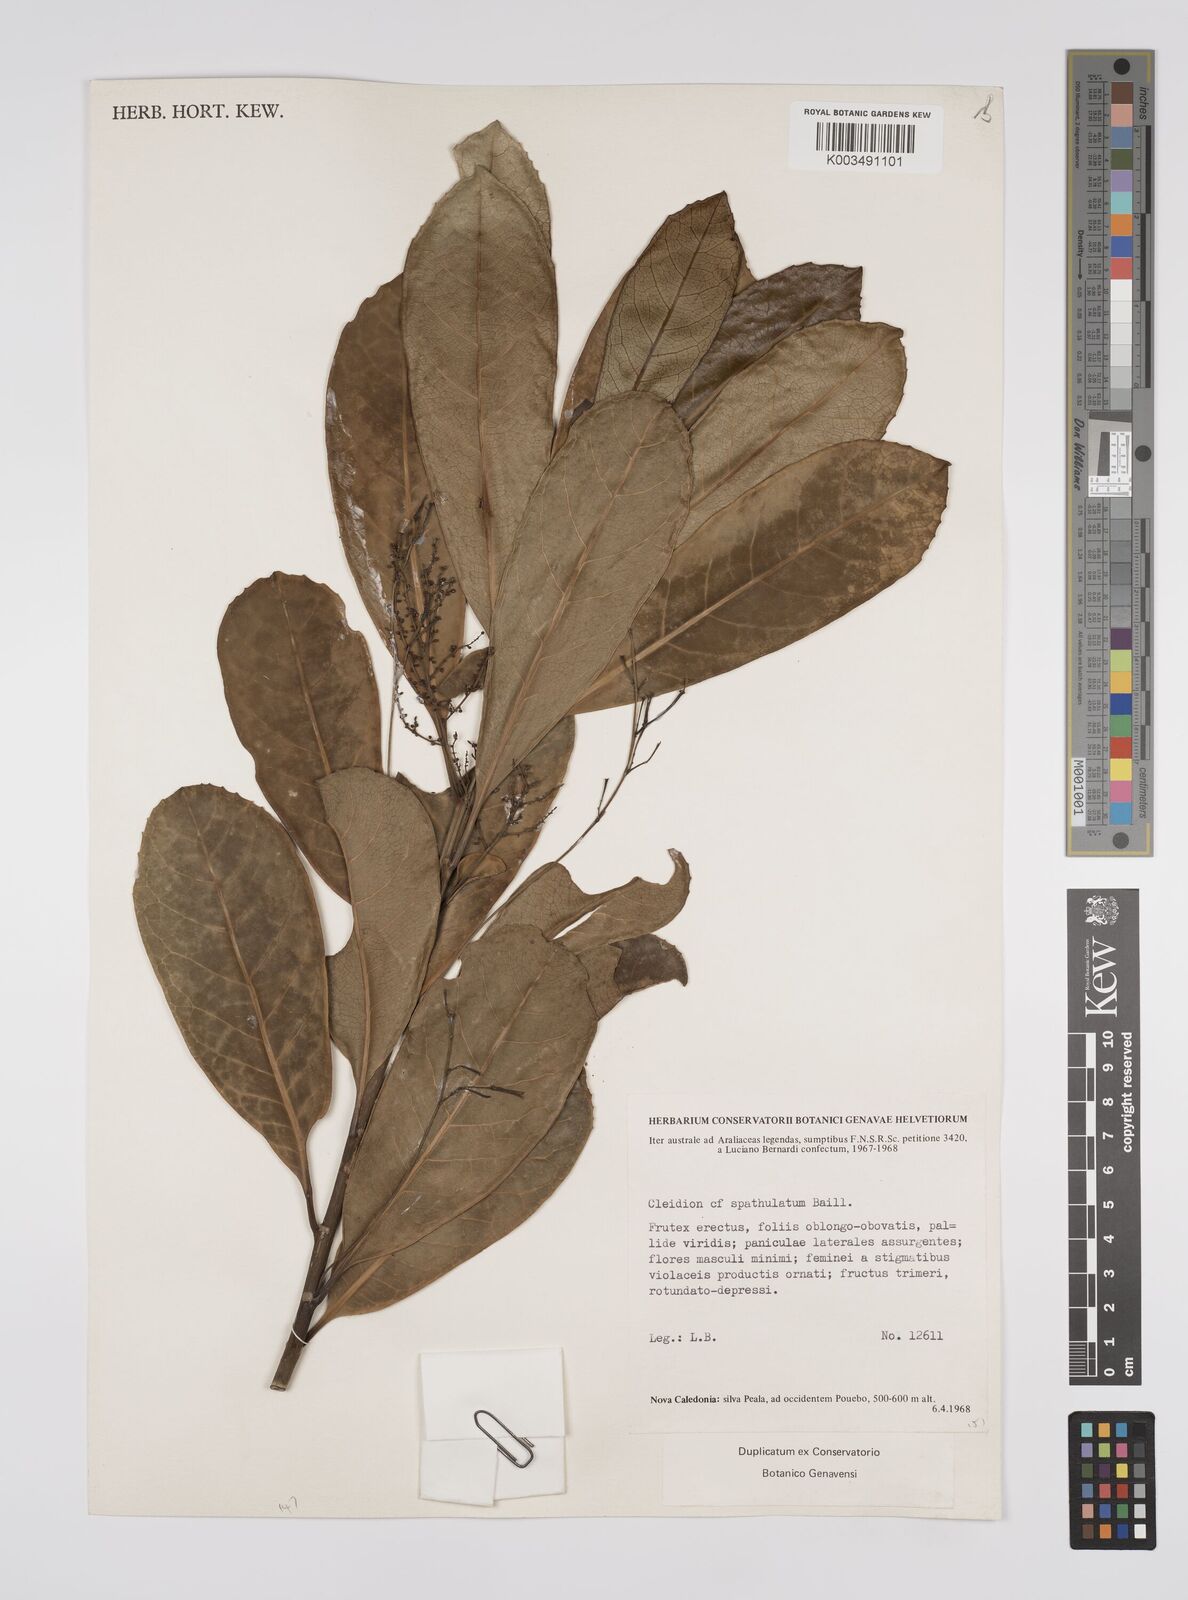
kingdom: Plantae
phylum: Tracheophyta
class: Magnoliopsida
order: Malpighiales
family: Euphorbiaceae
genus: Cleidion
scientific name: Cleidion spathulatum
